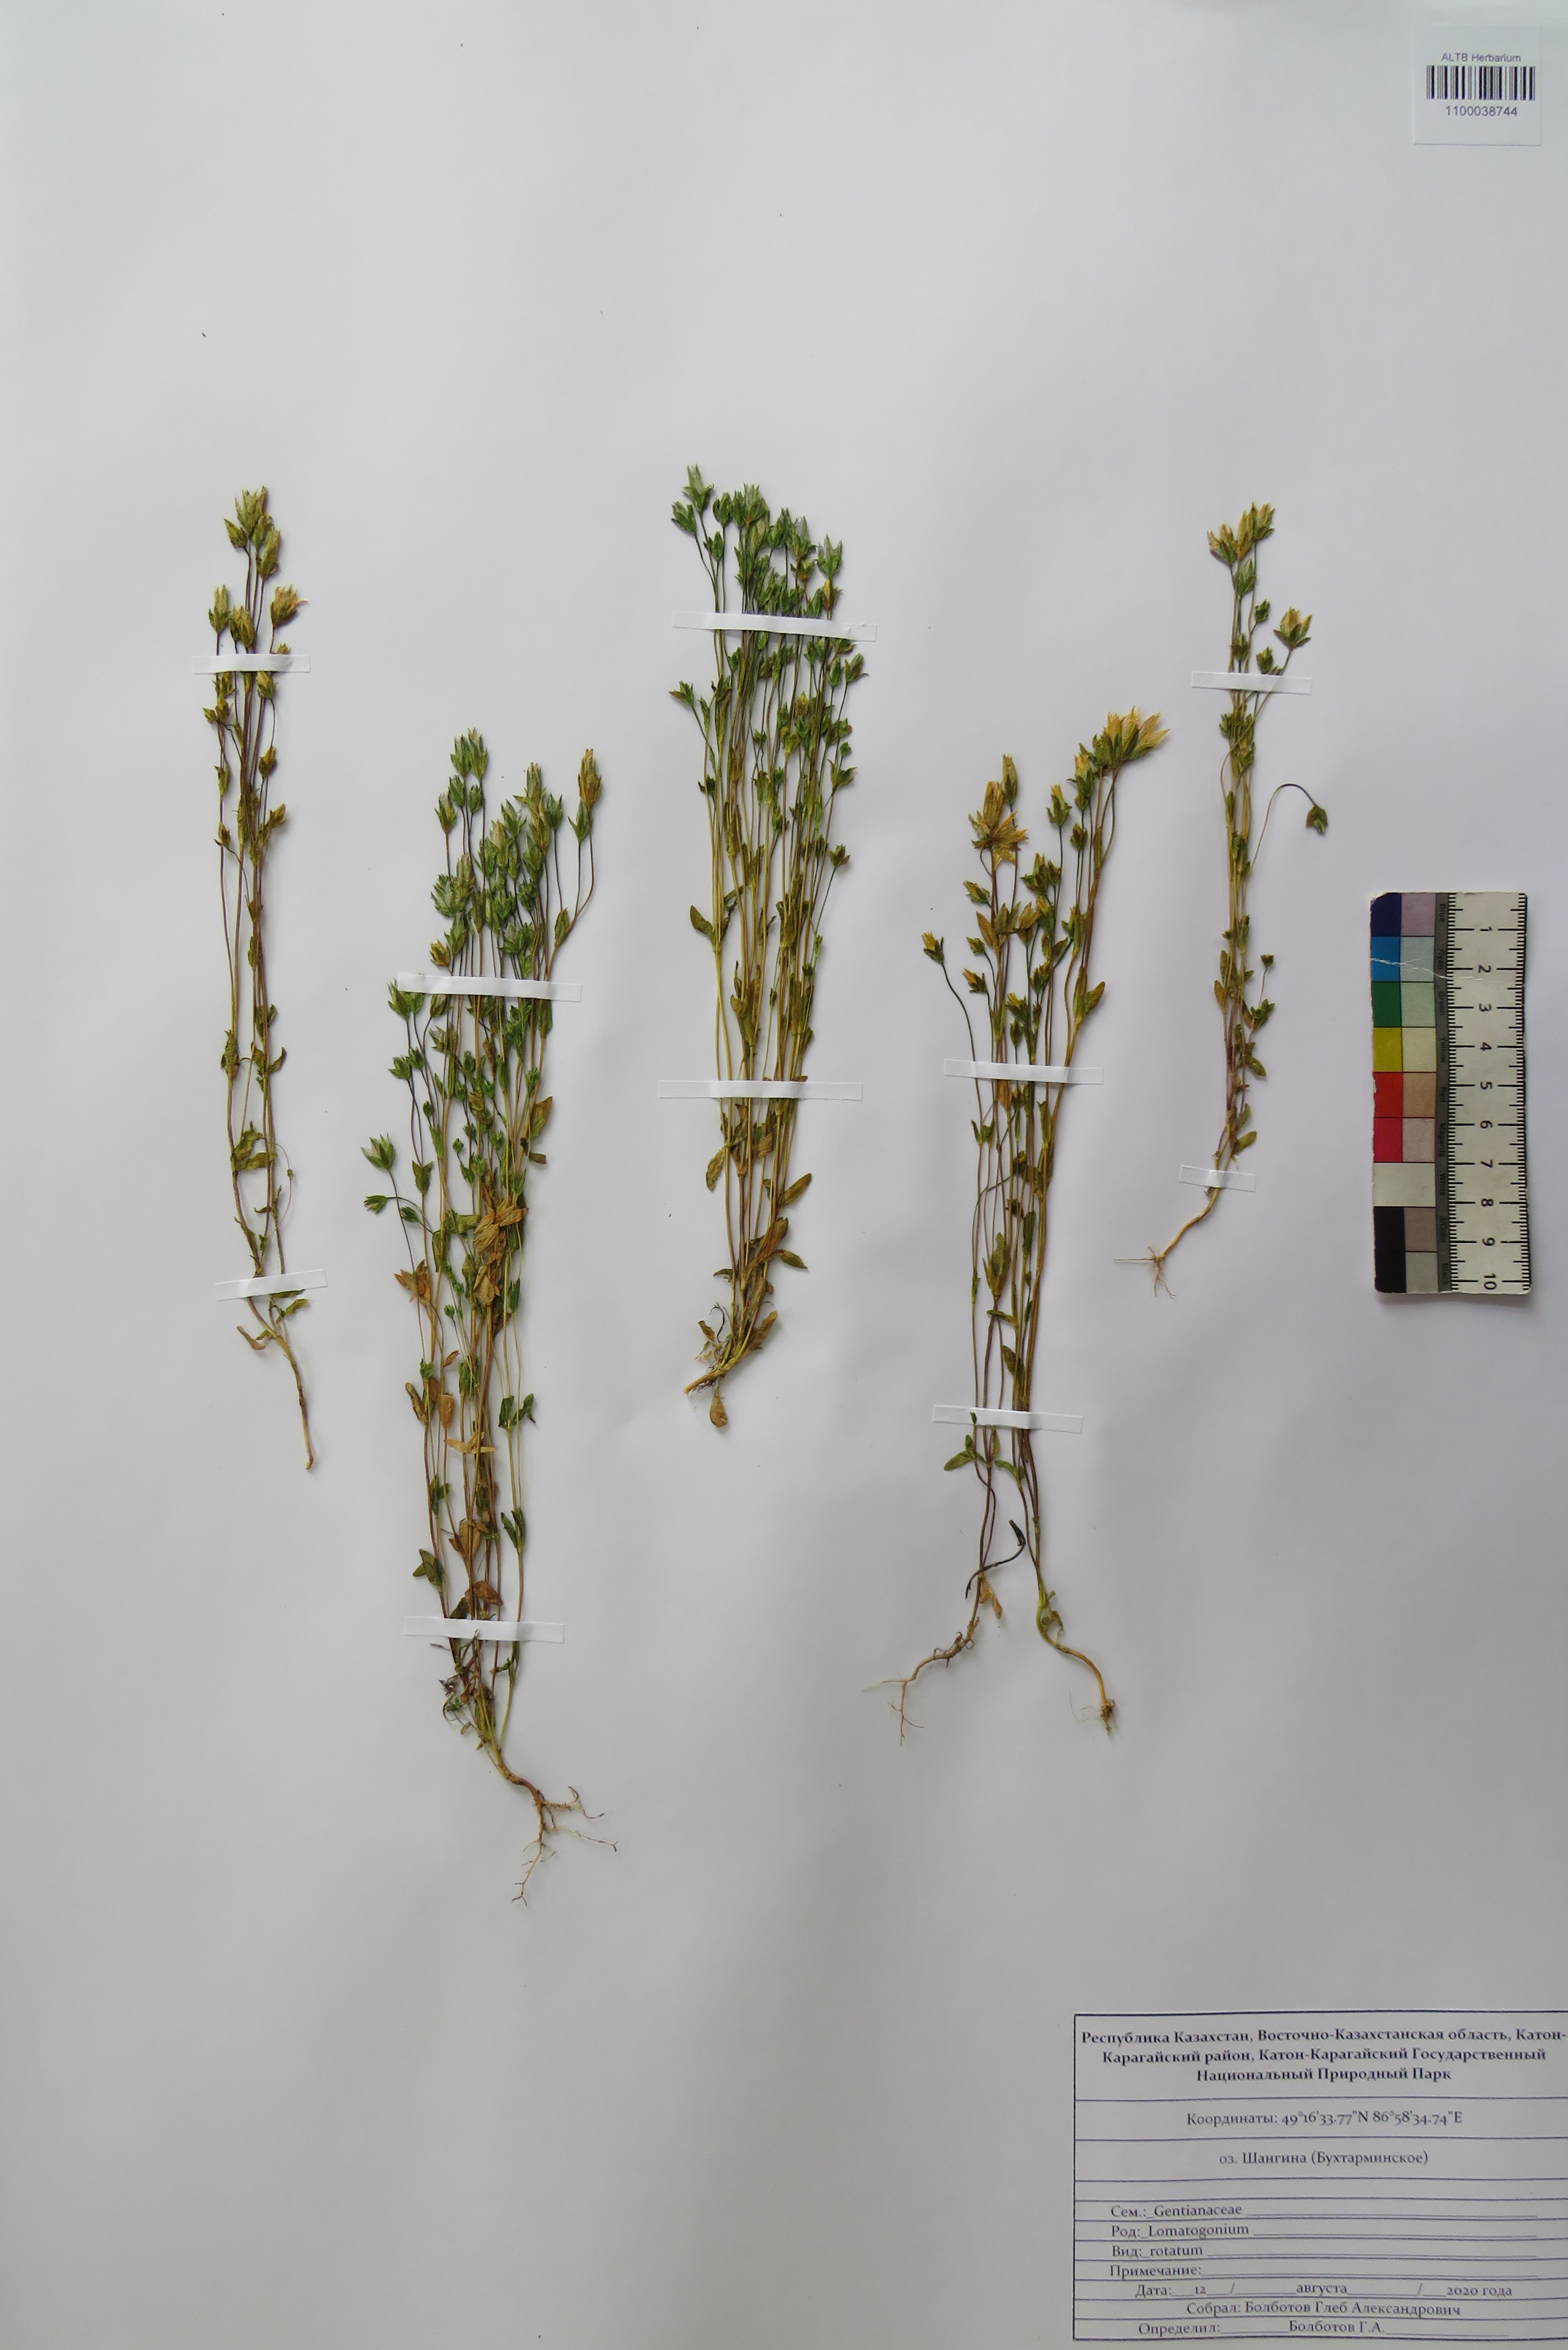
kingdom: Plantae
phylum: Tracheophyta
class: Magnoliopsida
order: Gentianales
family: Gentianaceae
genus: Lomatogonium
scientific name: Lomatogonium rotatum
